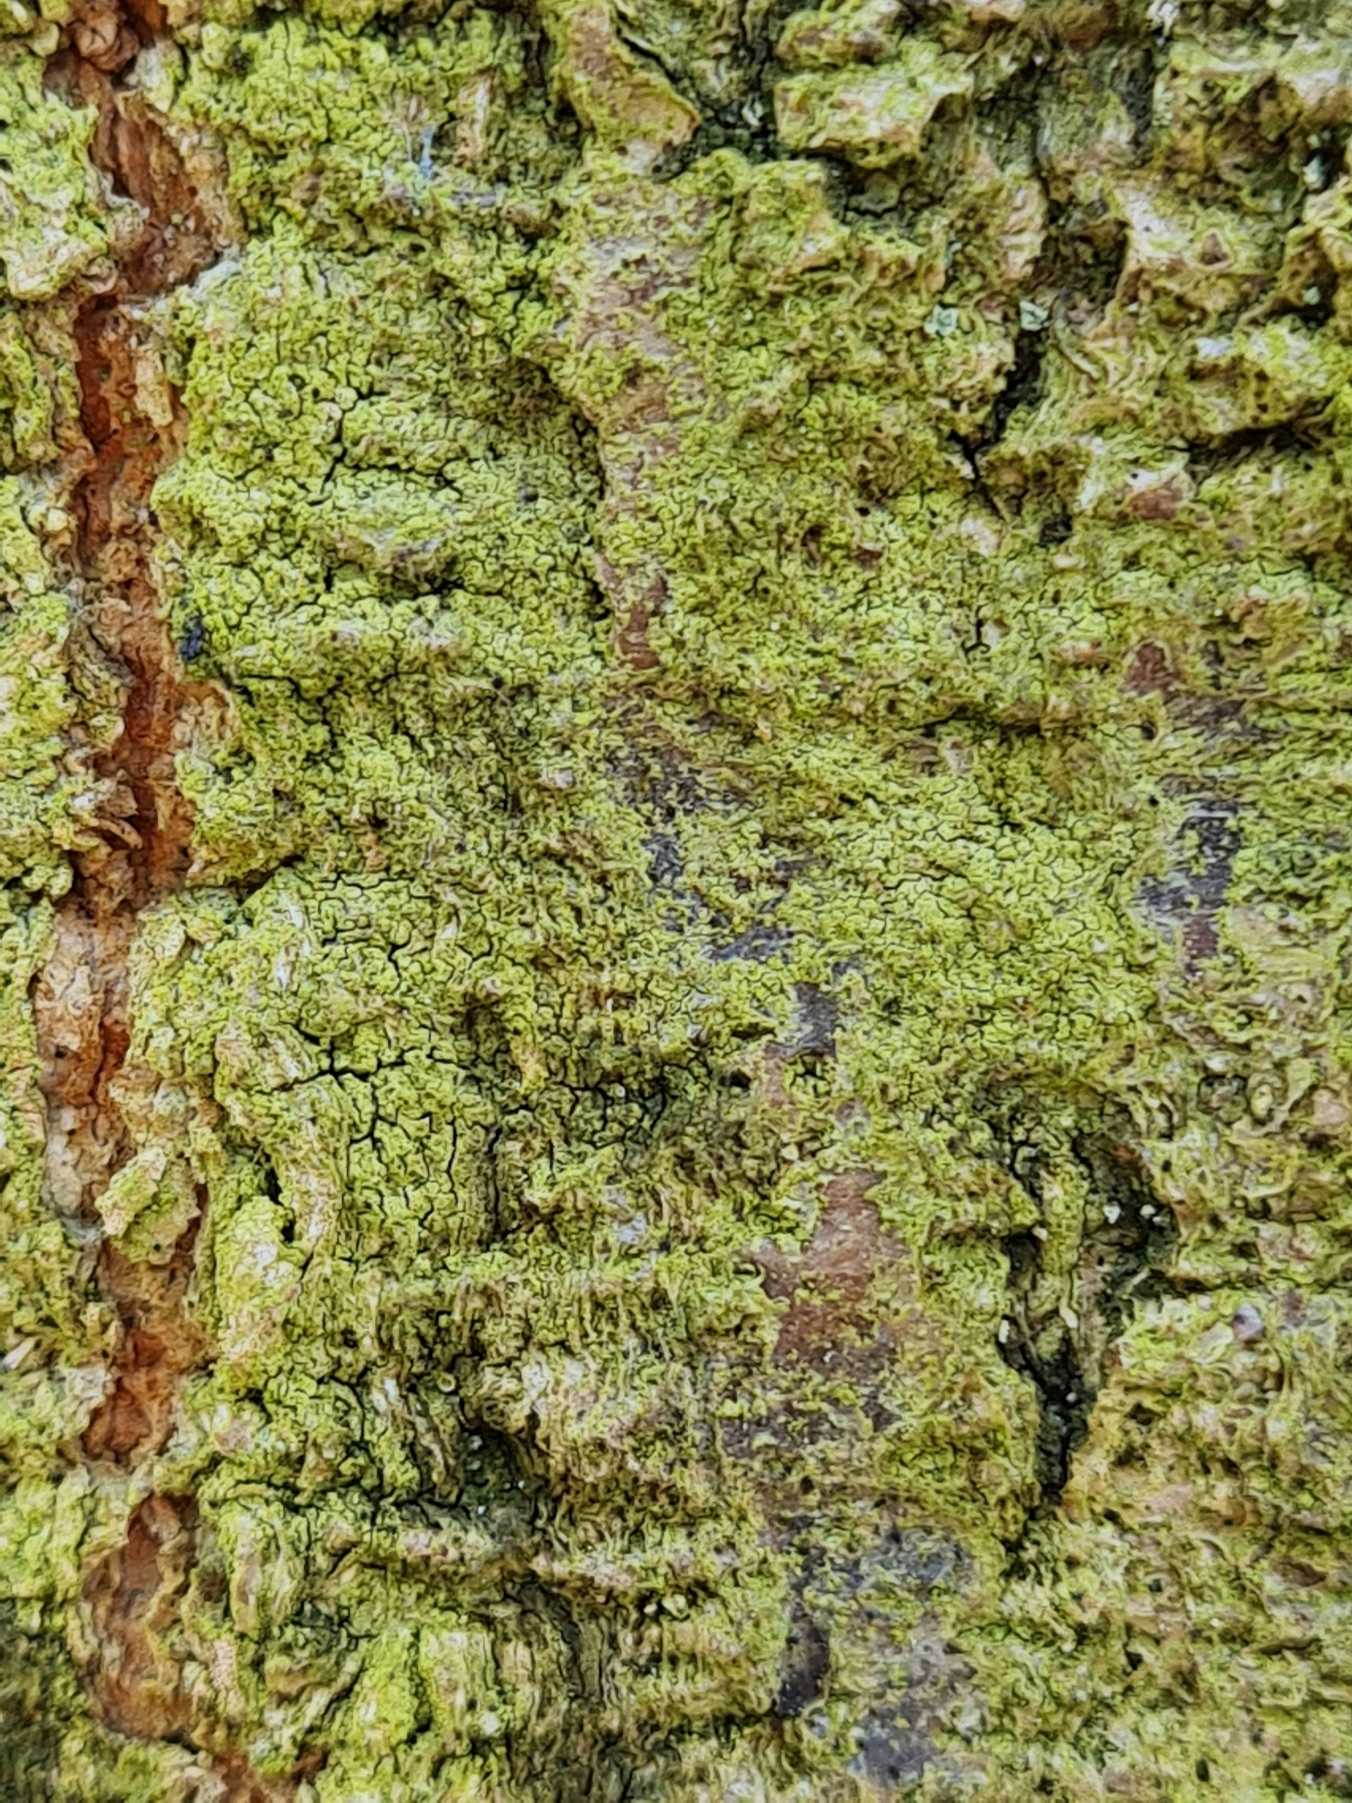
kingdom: Fungi
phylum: Ascomycota
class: Lecanoromycetes
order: Lecanorales
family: Stereocaulaceae
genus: Lepraria
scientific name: Lepraria
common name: Støvlav
